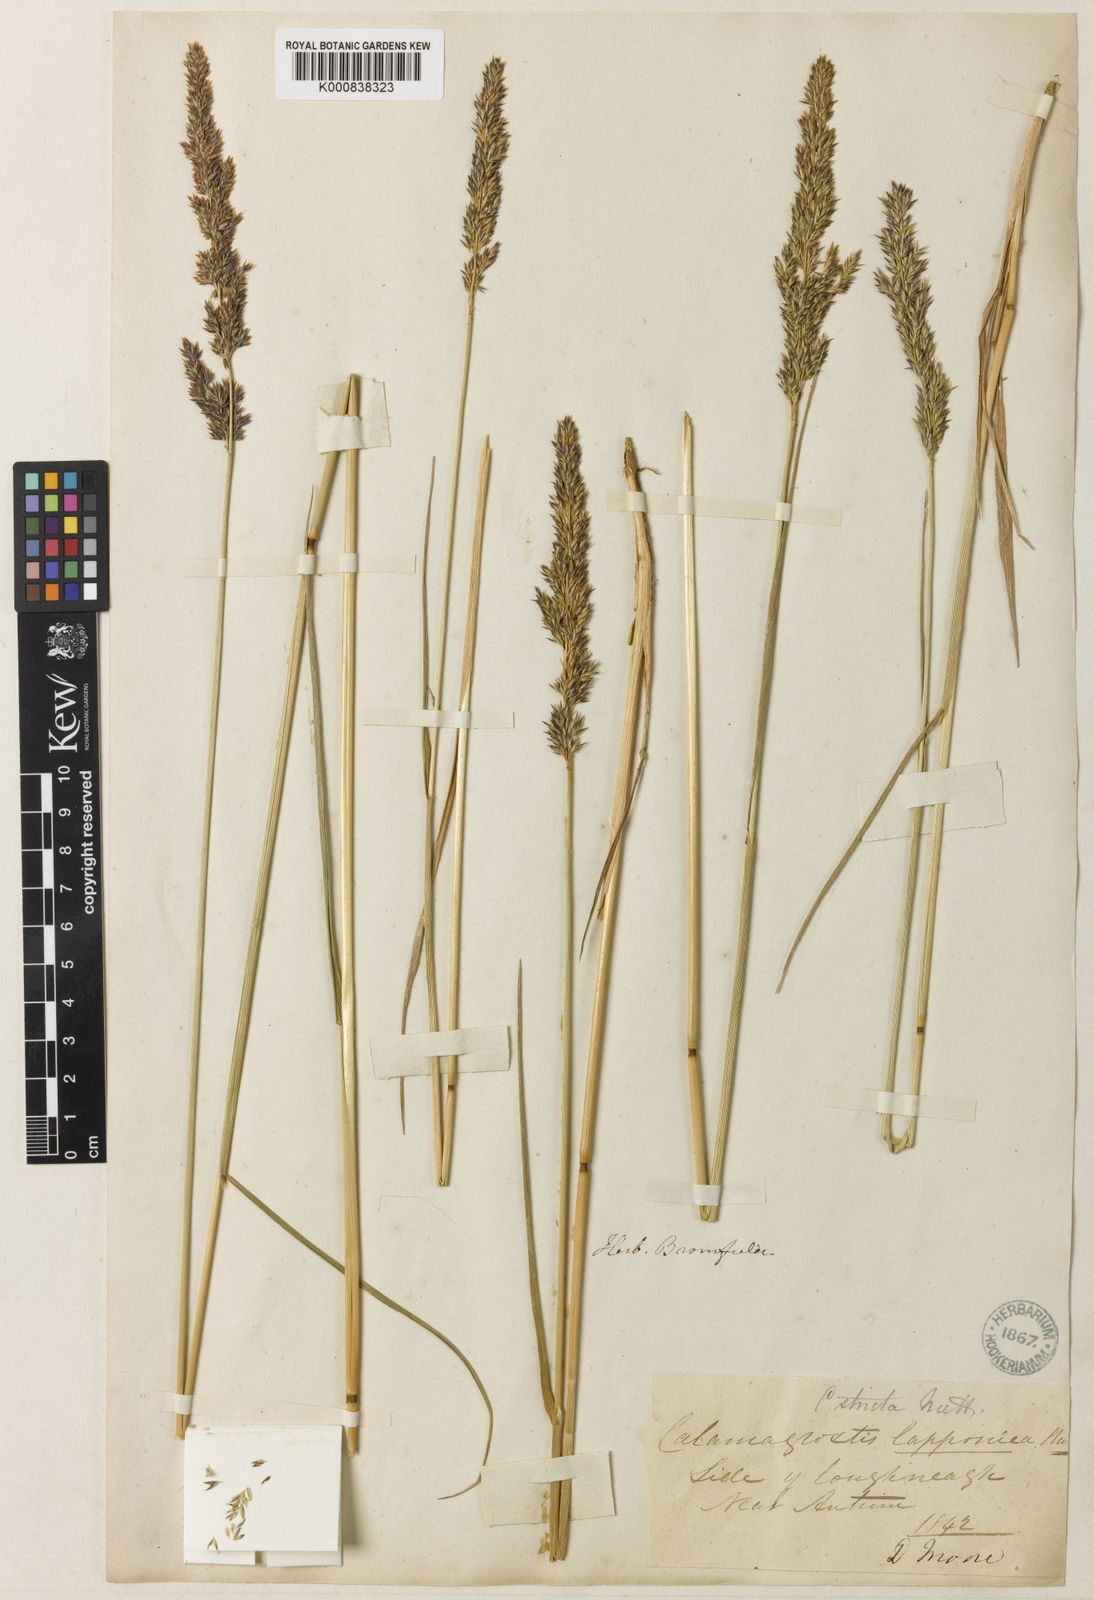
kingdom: Plantae
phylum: Tracheophyta
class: Liliopsida
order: Poales
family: Poaceae
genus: Calamagrostis
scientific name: Calamagrostis
